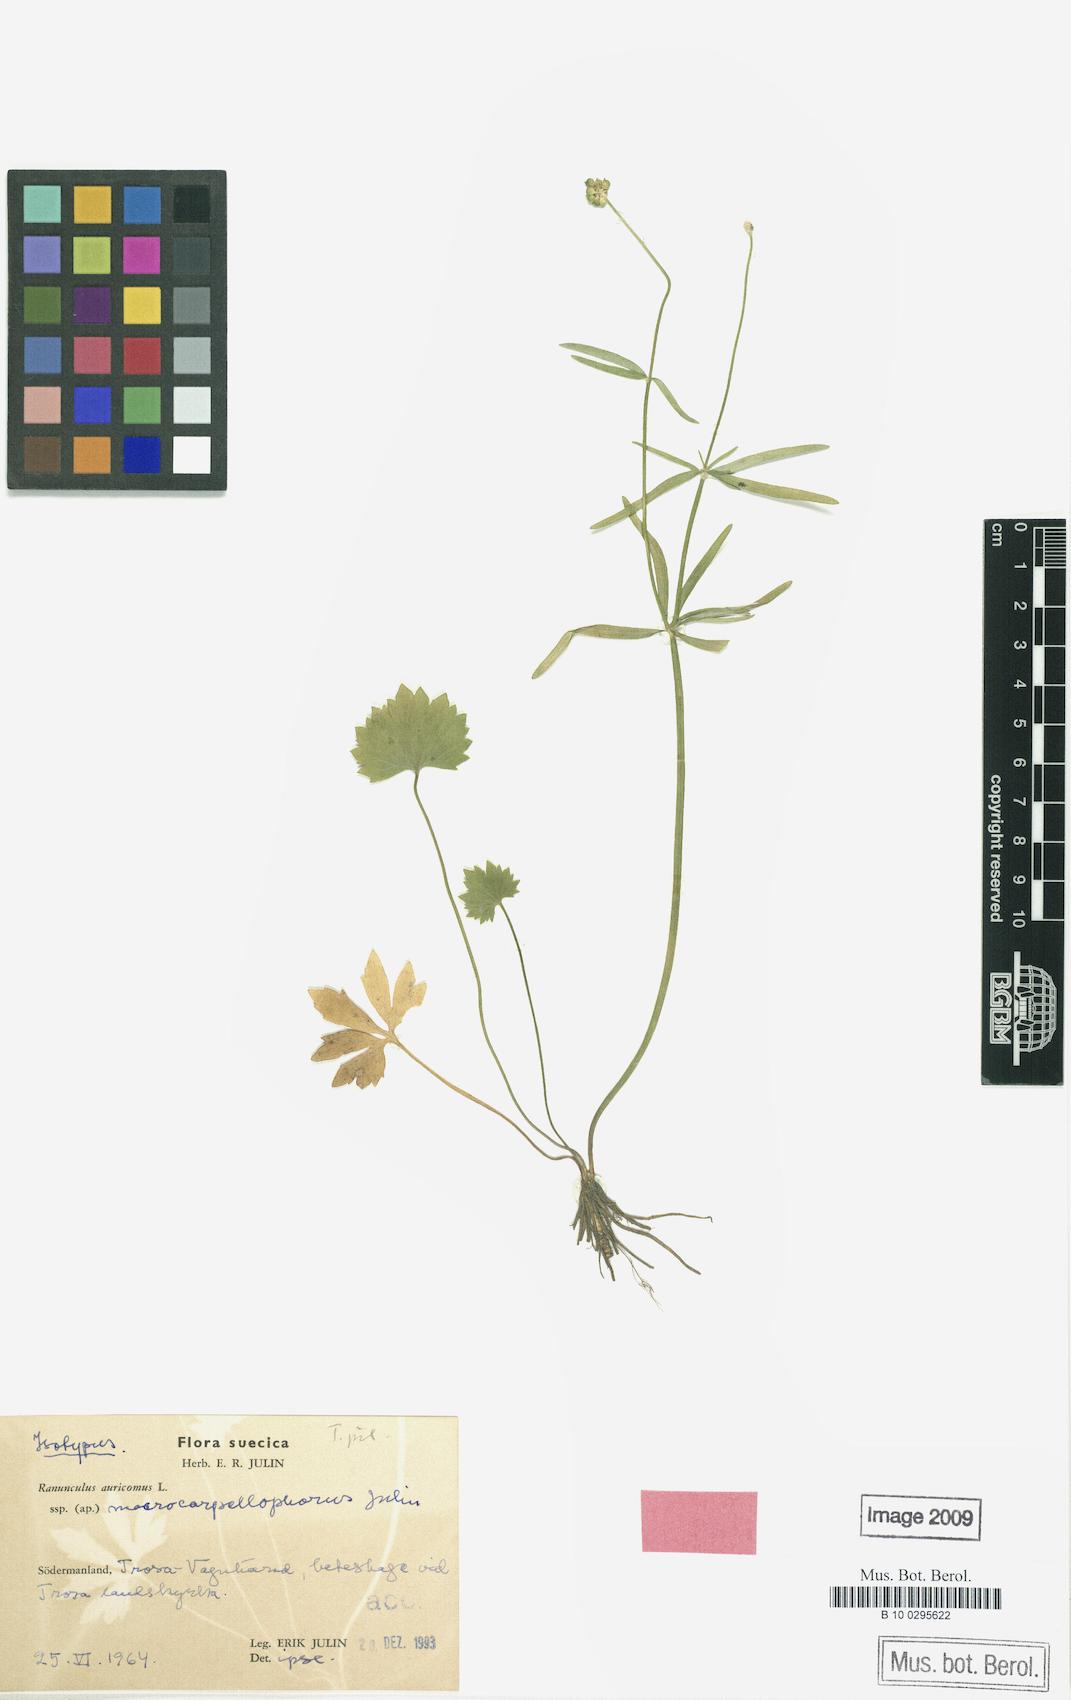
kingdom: Plantae
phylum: Tracheophyta
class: Magnoliopsida
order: Ranunculales
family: Ranunculaceae
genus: Ranunculus
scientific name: Ranunculus macrocarpellophorus
